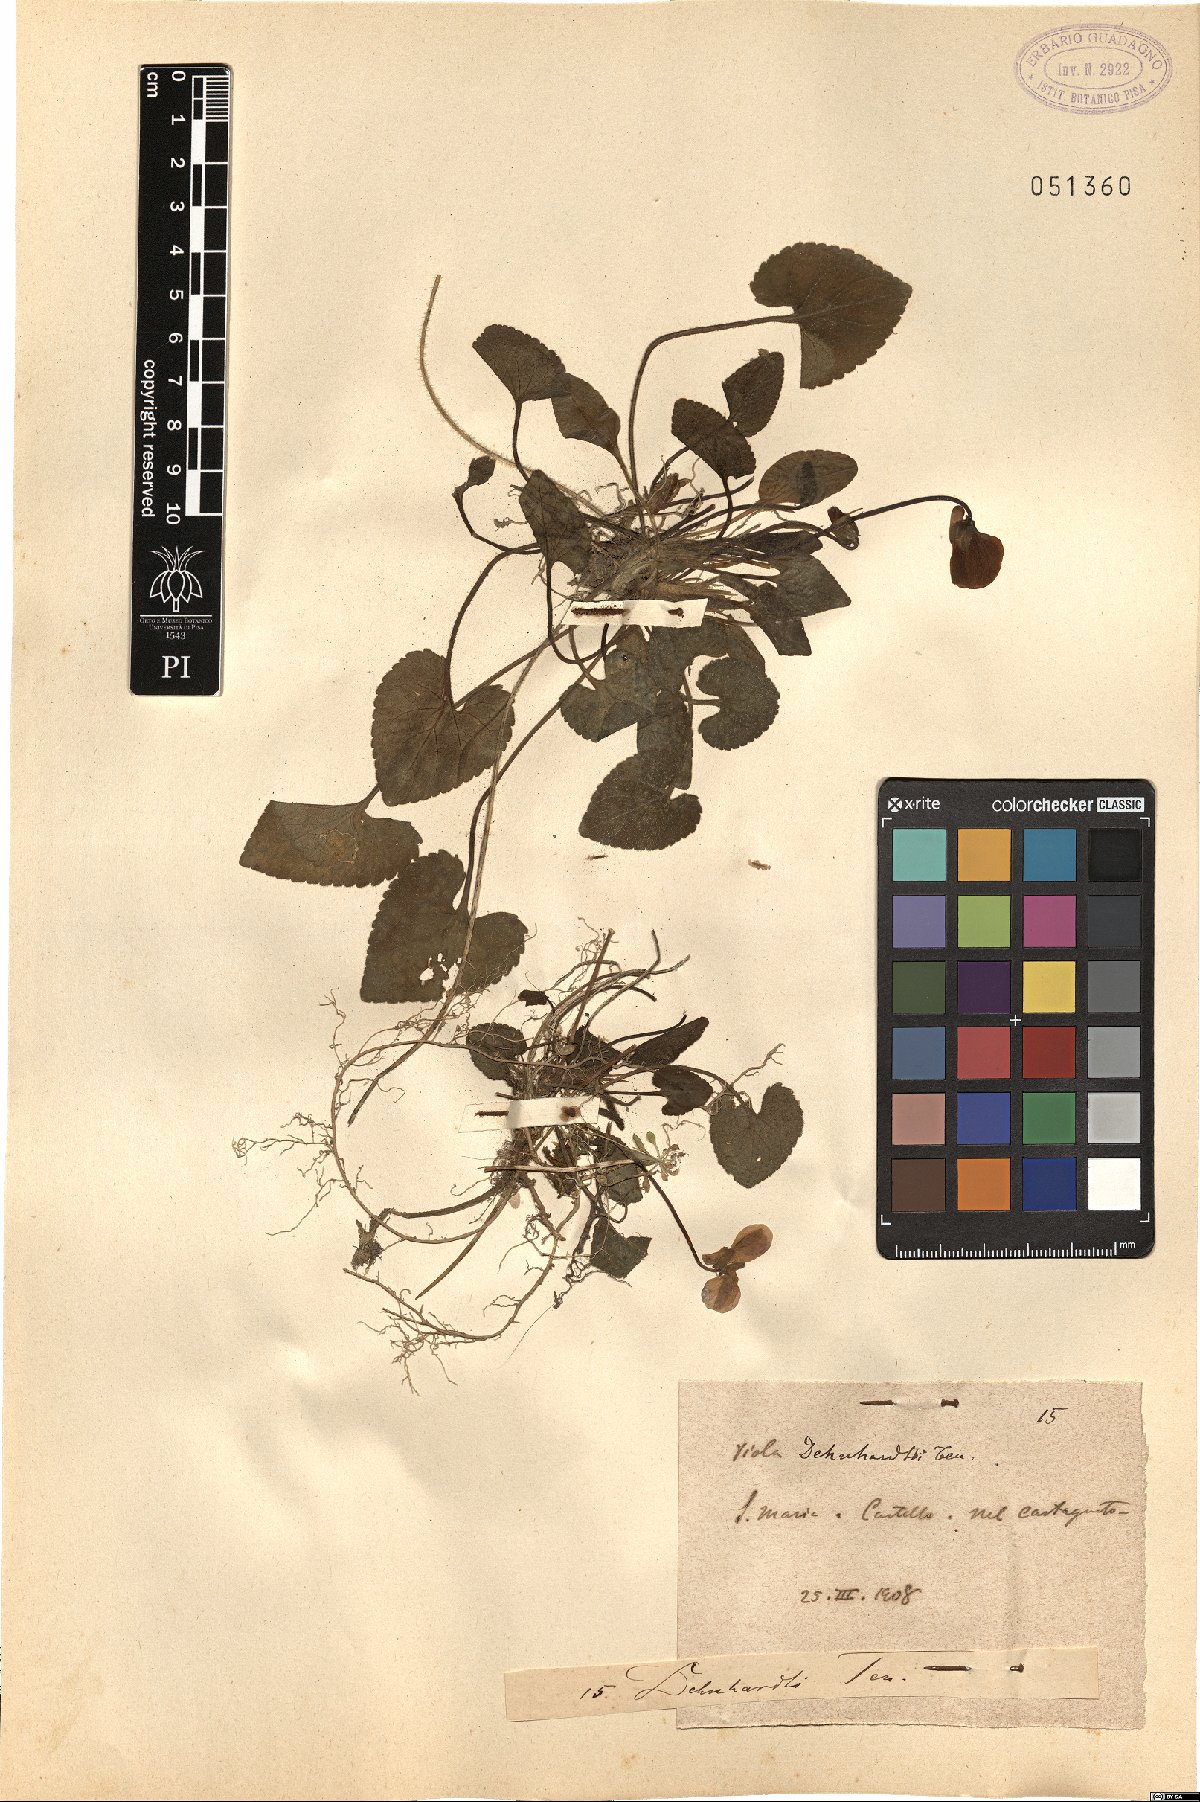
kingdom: Plantae
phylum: Tracheophyta
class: Magnoliopsida
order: Malpighiales
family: Violaceae
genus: Viola
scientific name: Viola alba
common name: White violet
